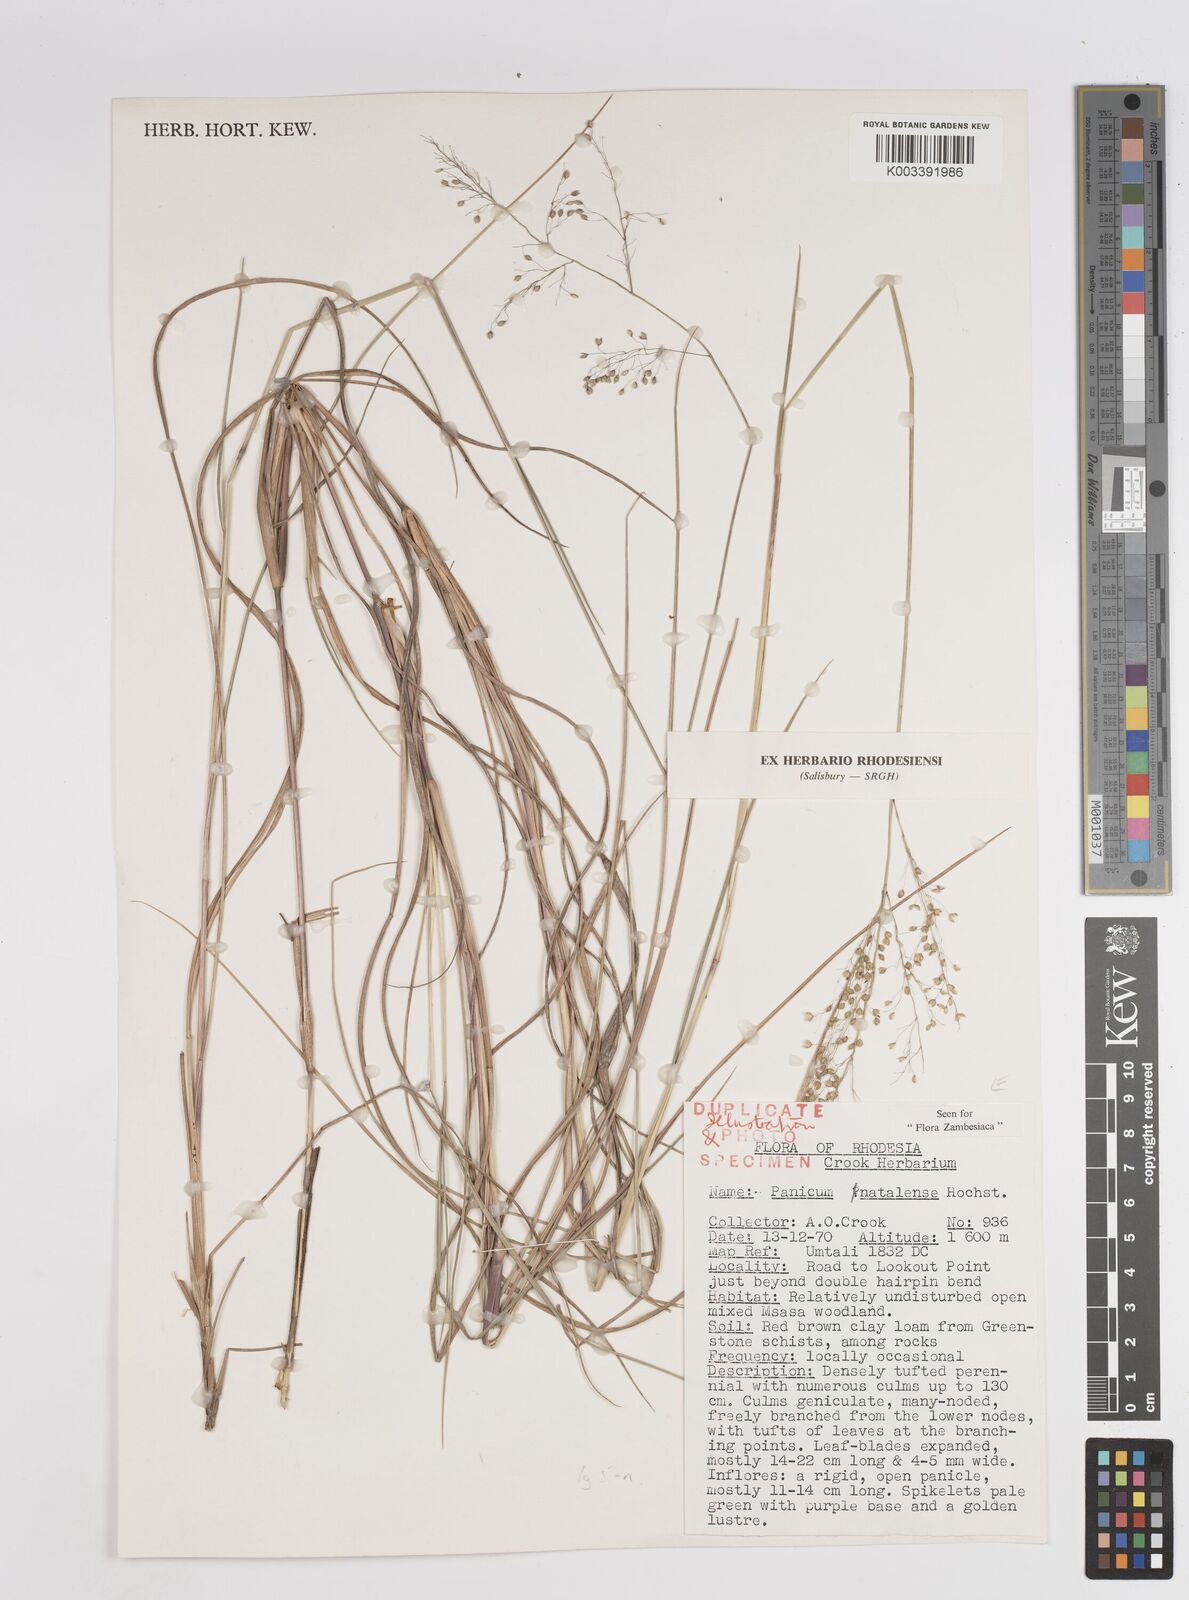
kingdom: Plantae
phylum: Tracheophyta
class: Liliopsida
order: Poales
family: Poaceae
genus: Trichanthecium
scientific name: Trichanthecium natalense
